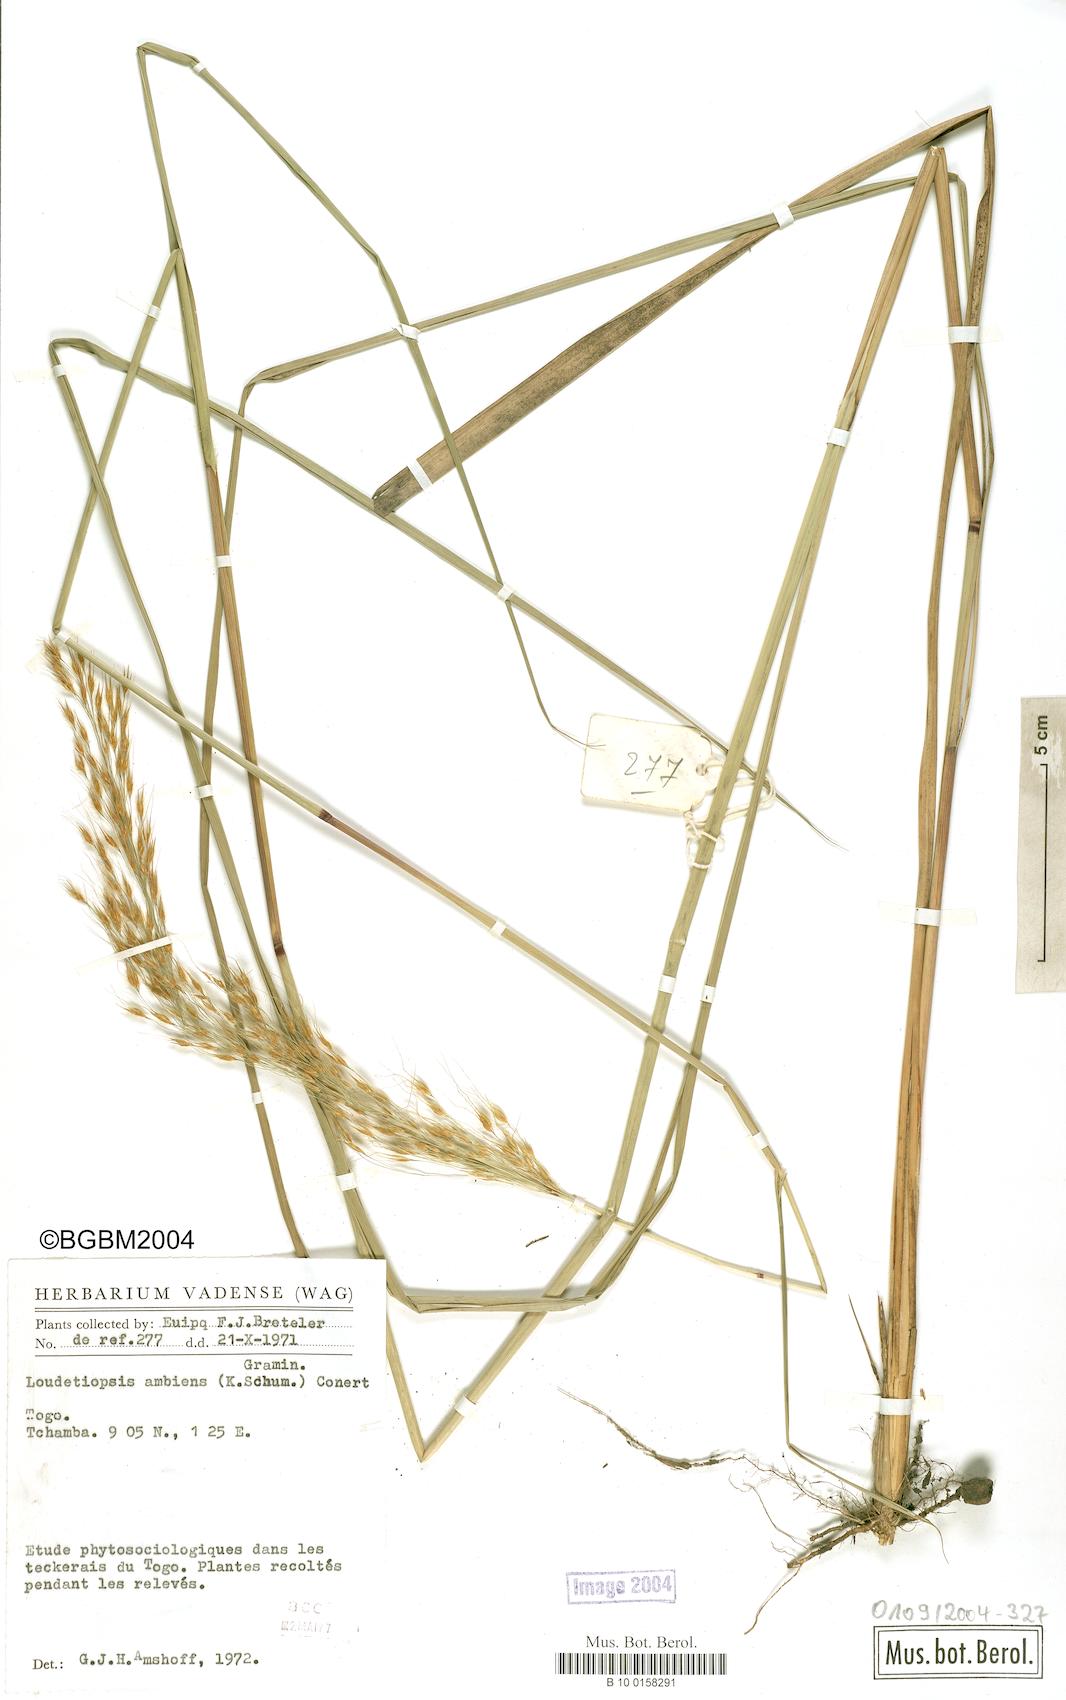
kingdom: Plantae
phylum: Tracheophyta
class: Liliopsida
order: Poales
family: Poaceae
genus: Loudetiopsis
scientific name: Loudetiopsis ambiens
